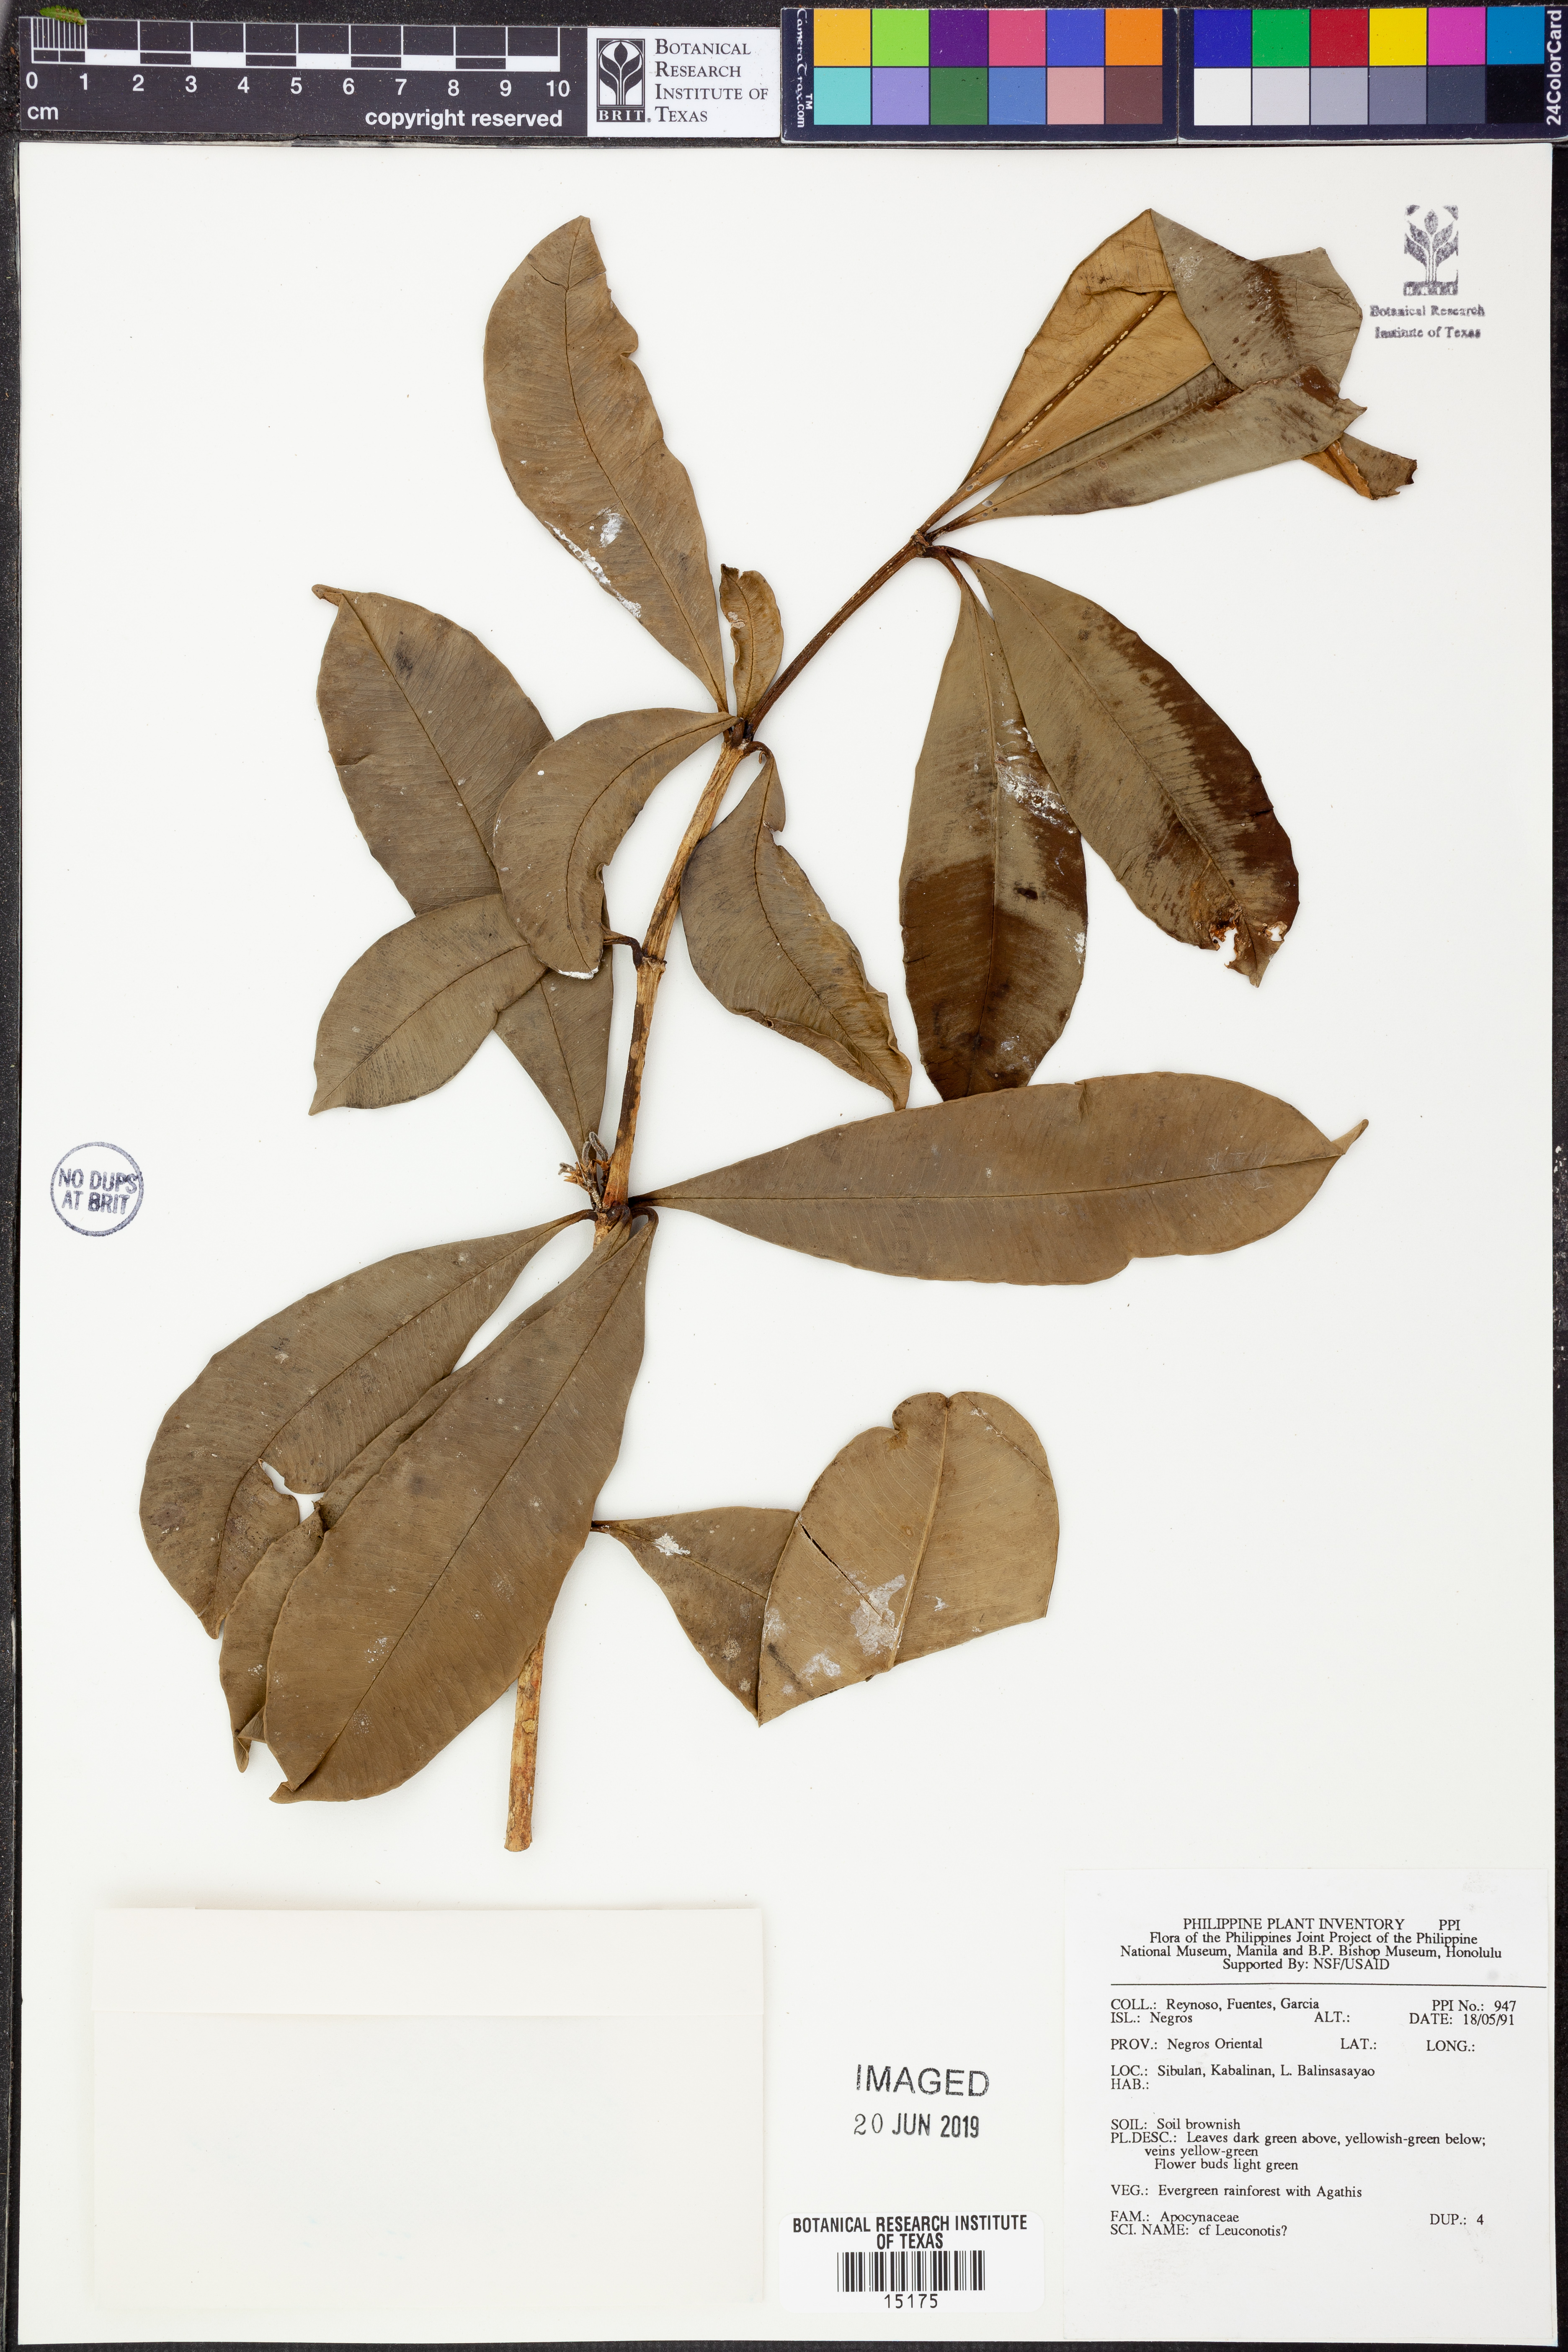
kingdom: Plantae
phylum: Tracheophyta
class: Magnoliopsida
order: Gentianales
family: Apocynaceae
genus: Leuconotis
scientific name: Leuconotis
